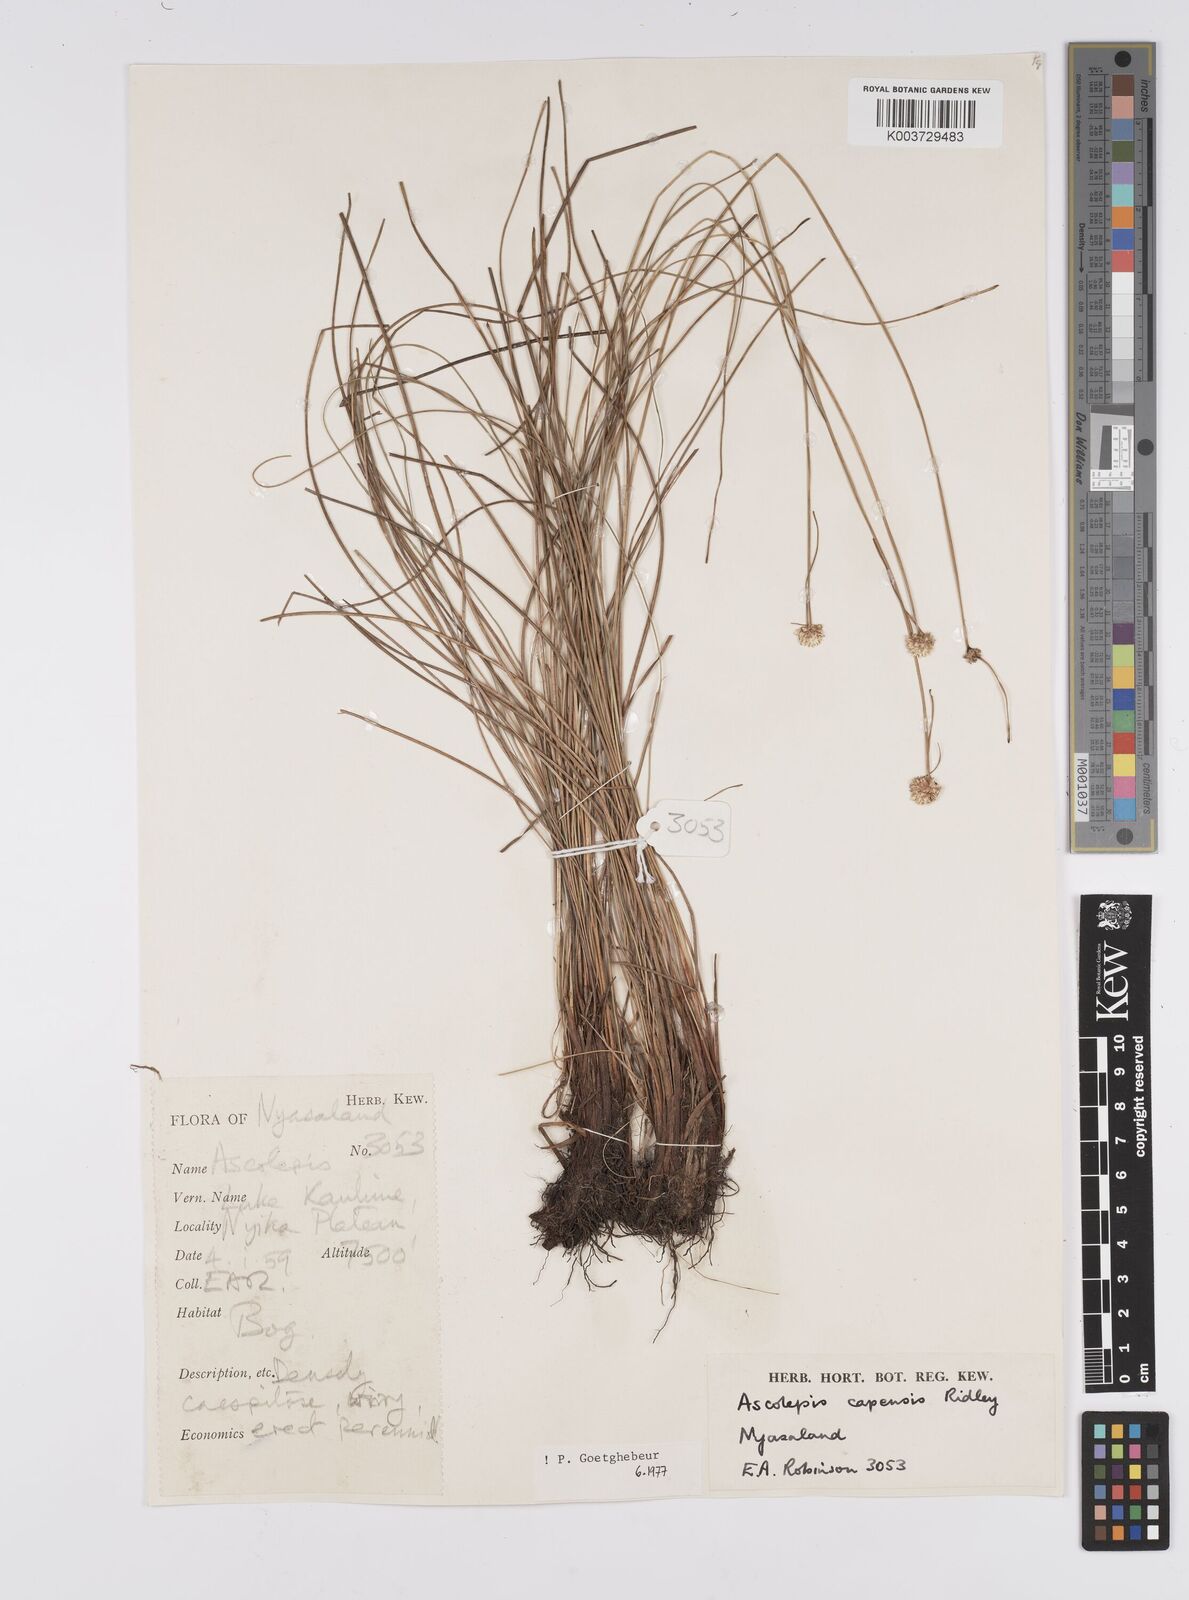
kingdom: Plantae
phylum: Tracheophyta
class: Liliopsida
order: Poales
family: Cyperaceae
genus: Cyperus
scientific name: Cyperus
